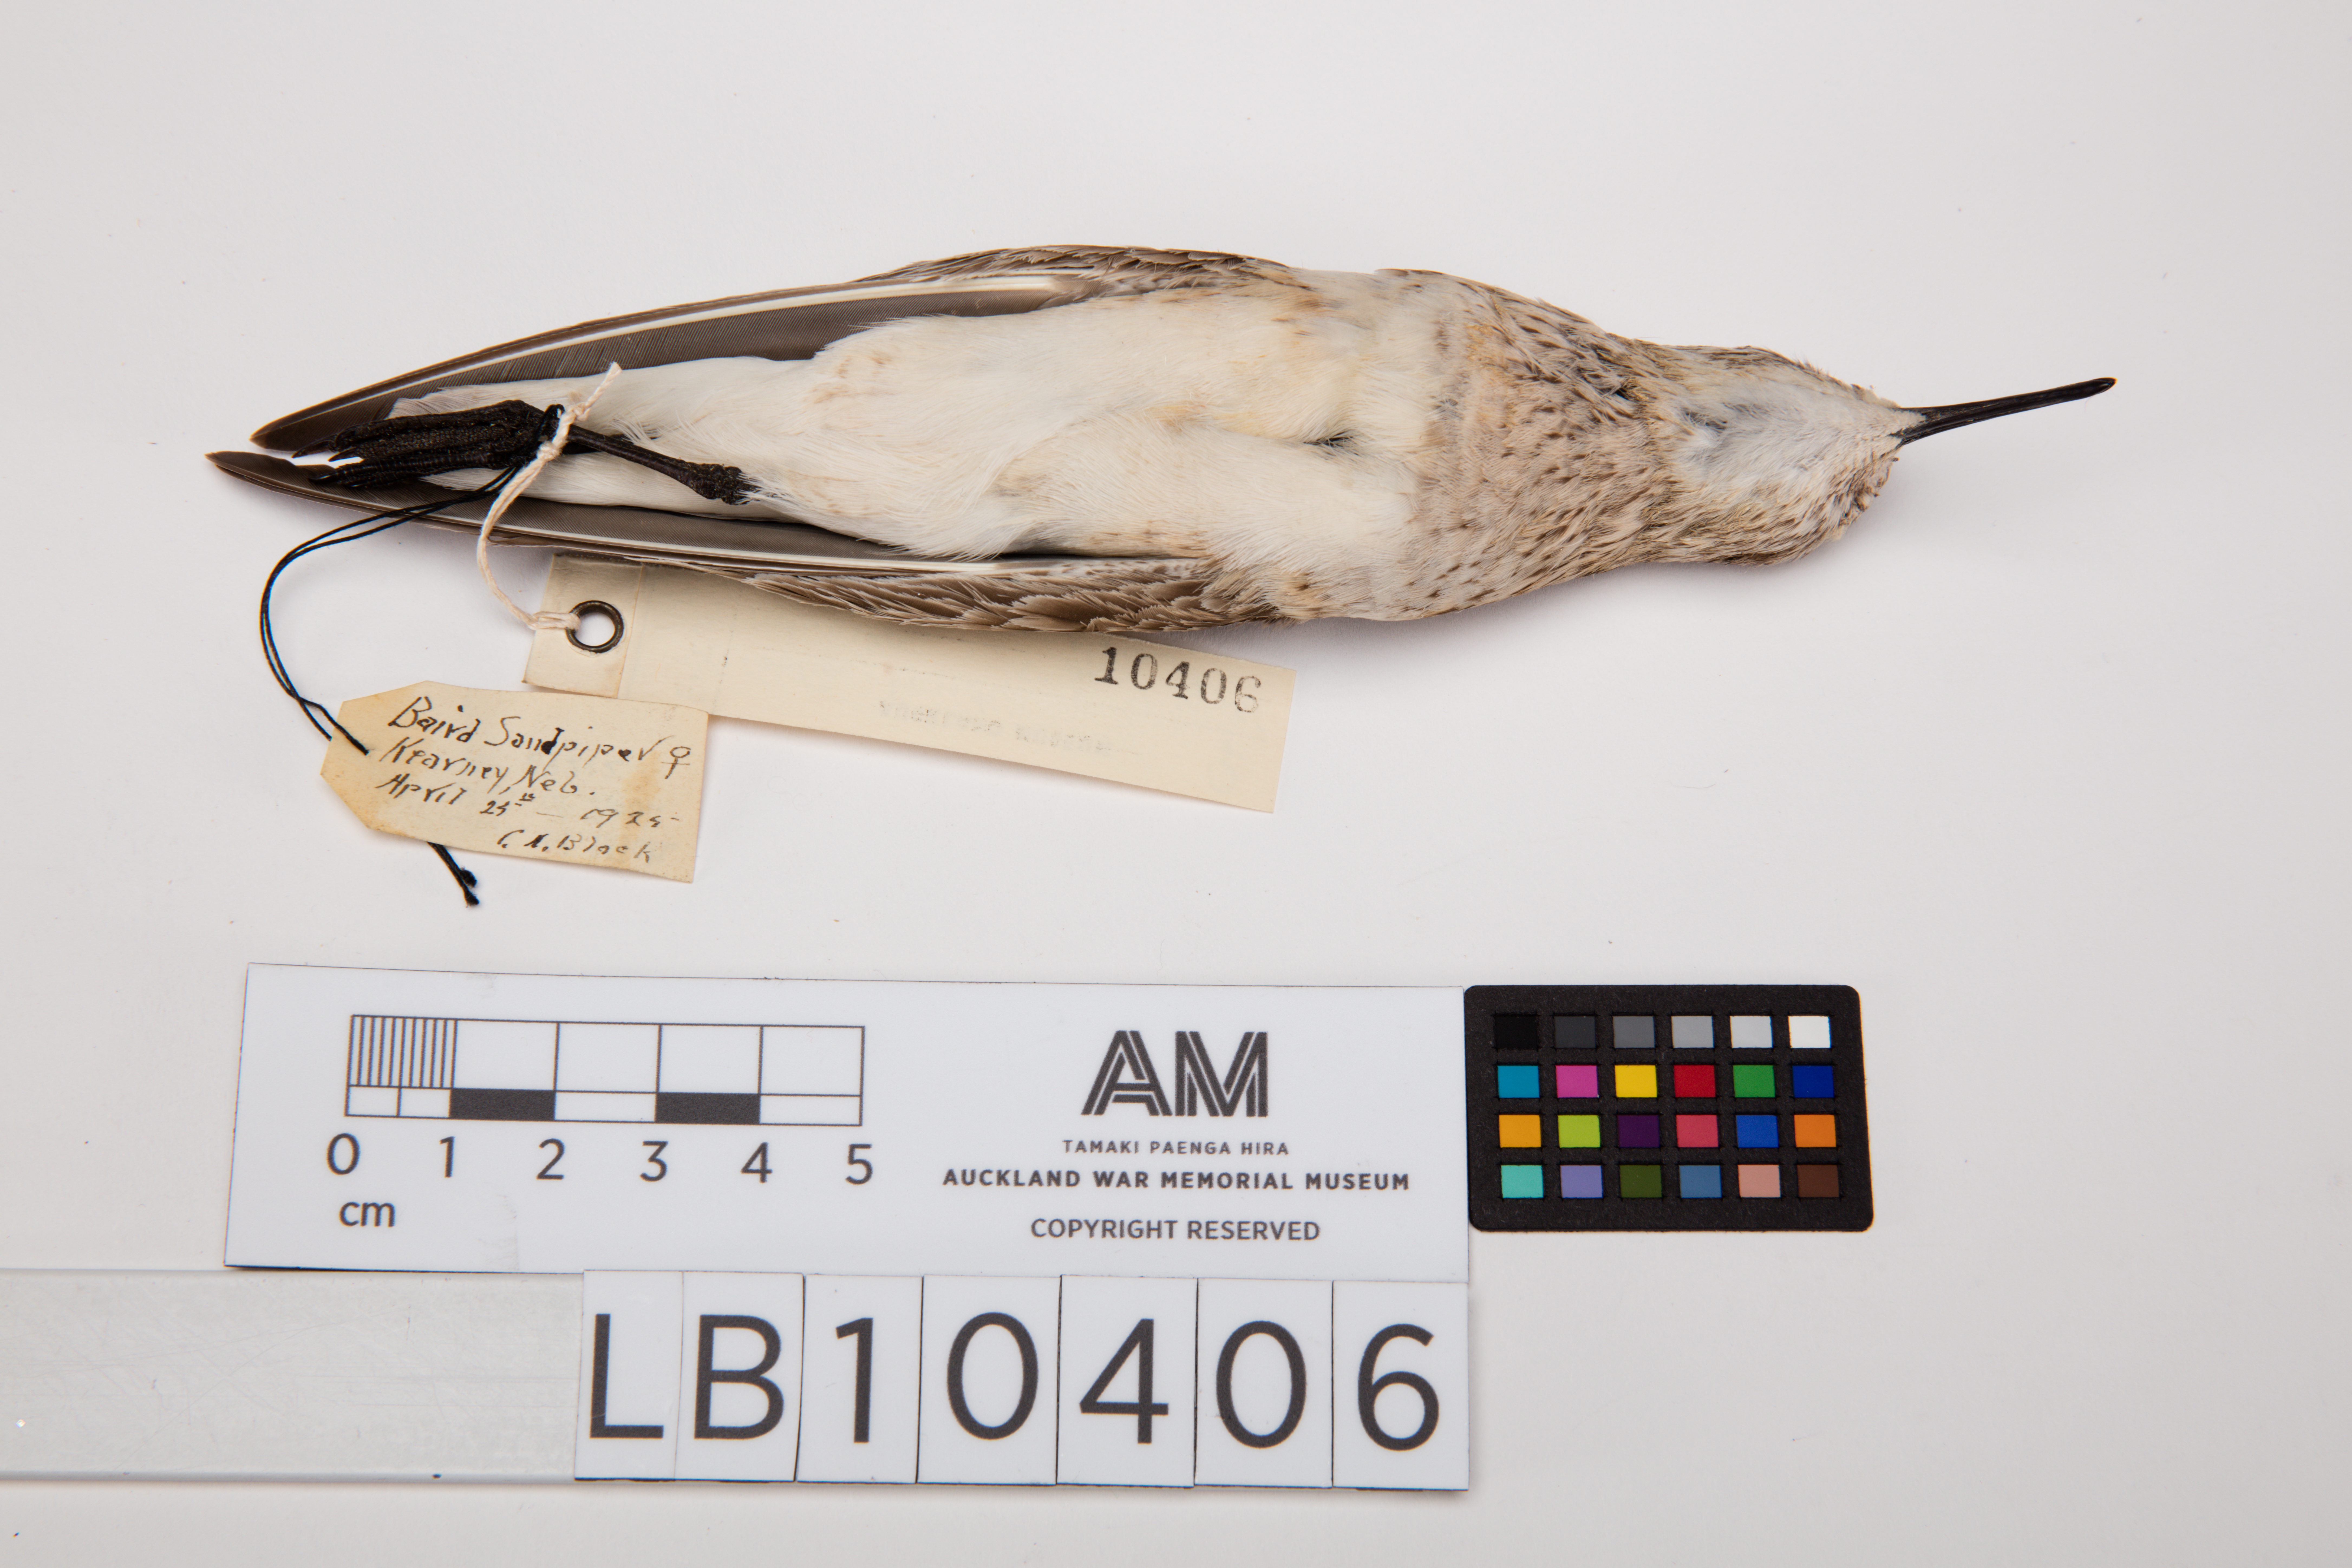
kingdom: Animalia
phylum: Chordata
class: Aves
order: Charadriiformes
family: Scolopacidae
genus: Calidris
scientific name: Calidris bairdii
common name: Baird's sandpiper
